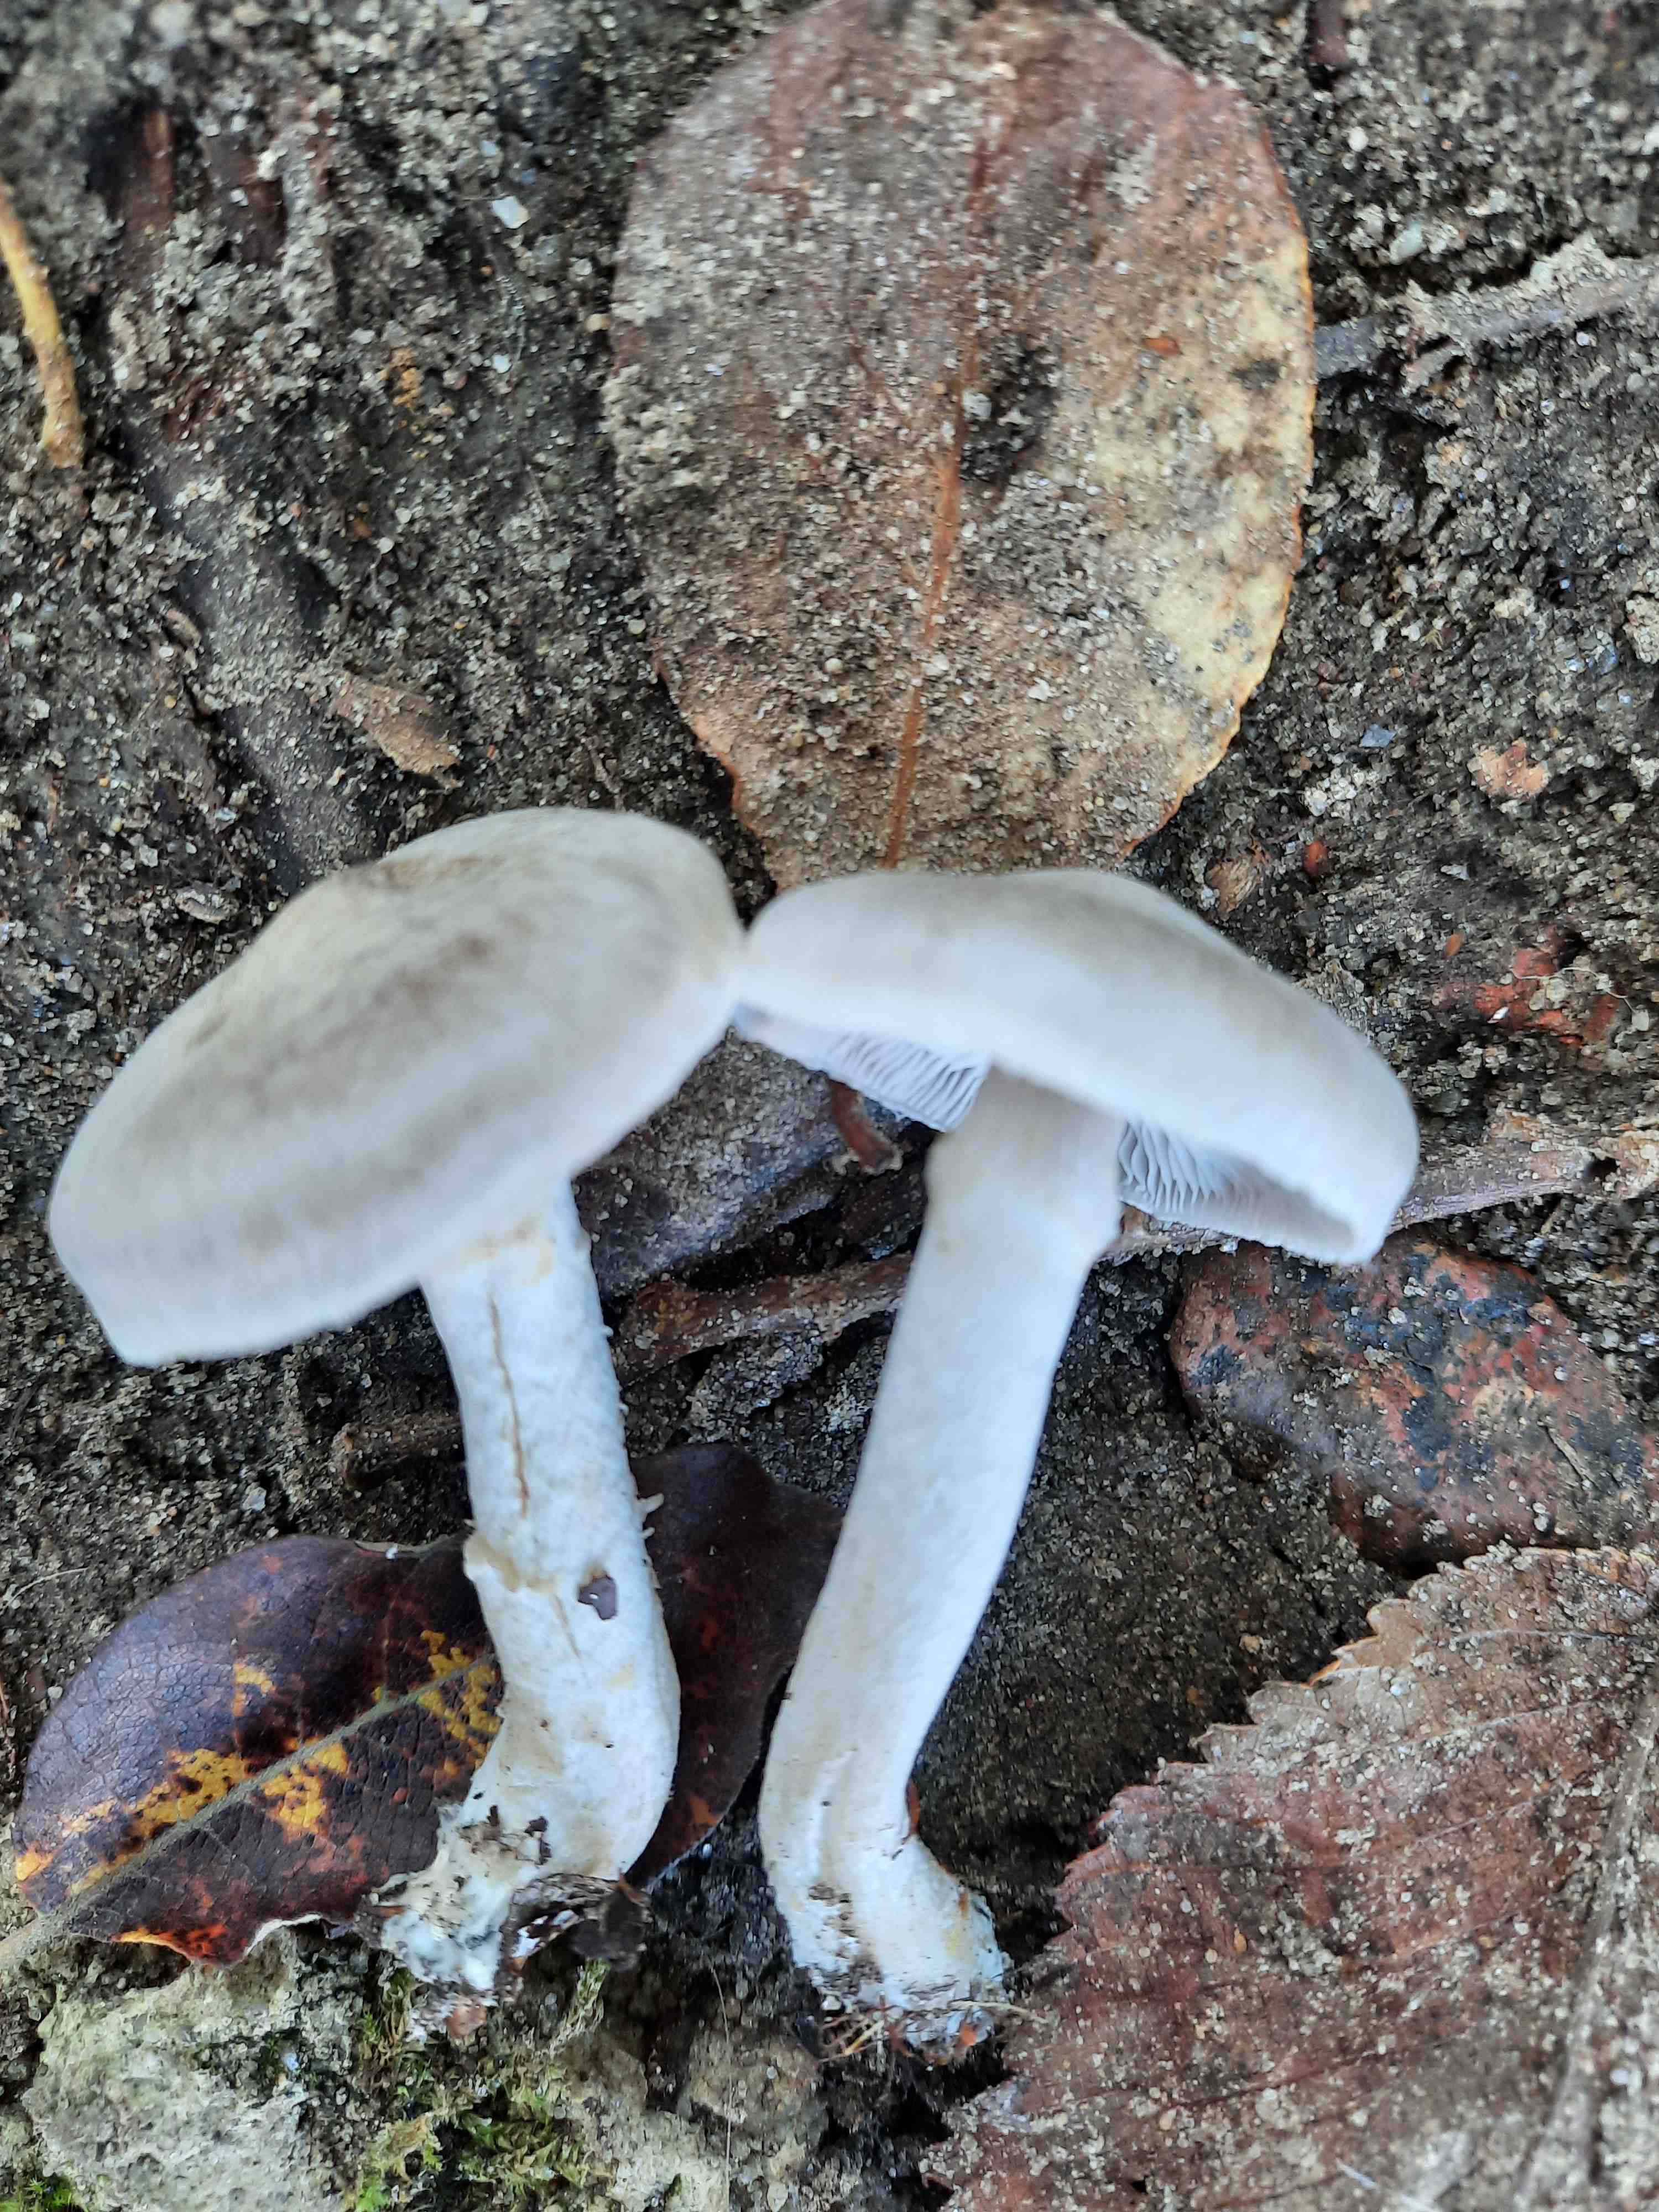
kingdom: Fungi
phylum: Basidiomycota
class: Agaricomycetes
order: Agaricales
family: Tricholomataceae
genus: Tricholoma
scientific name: Tricholoma cingulatum
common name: ring-ridderhat
